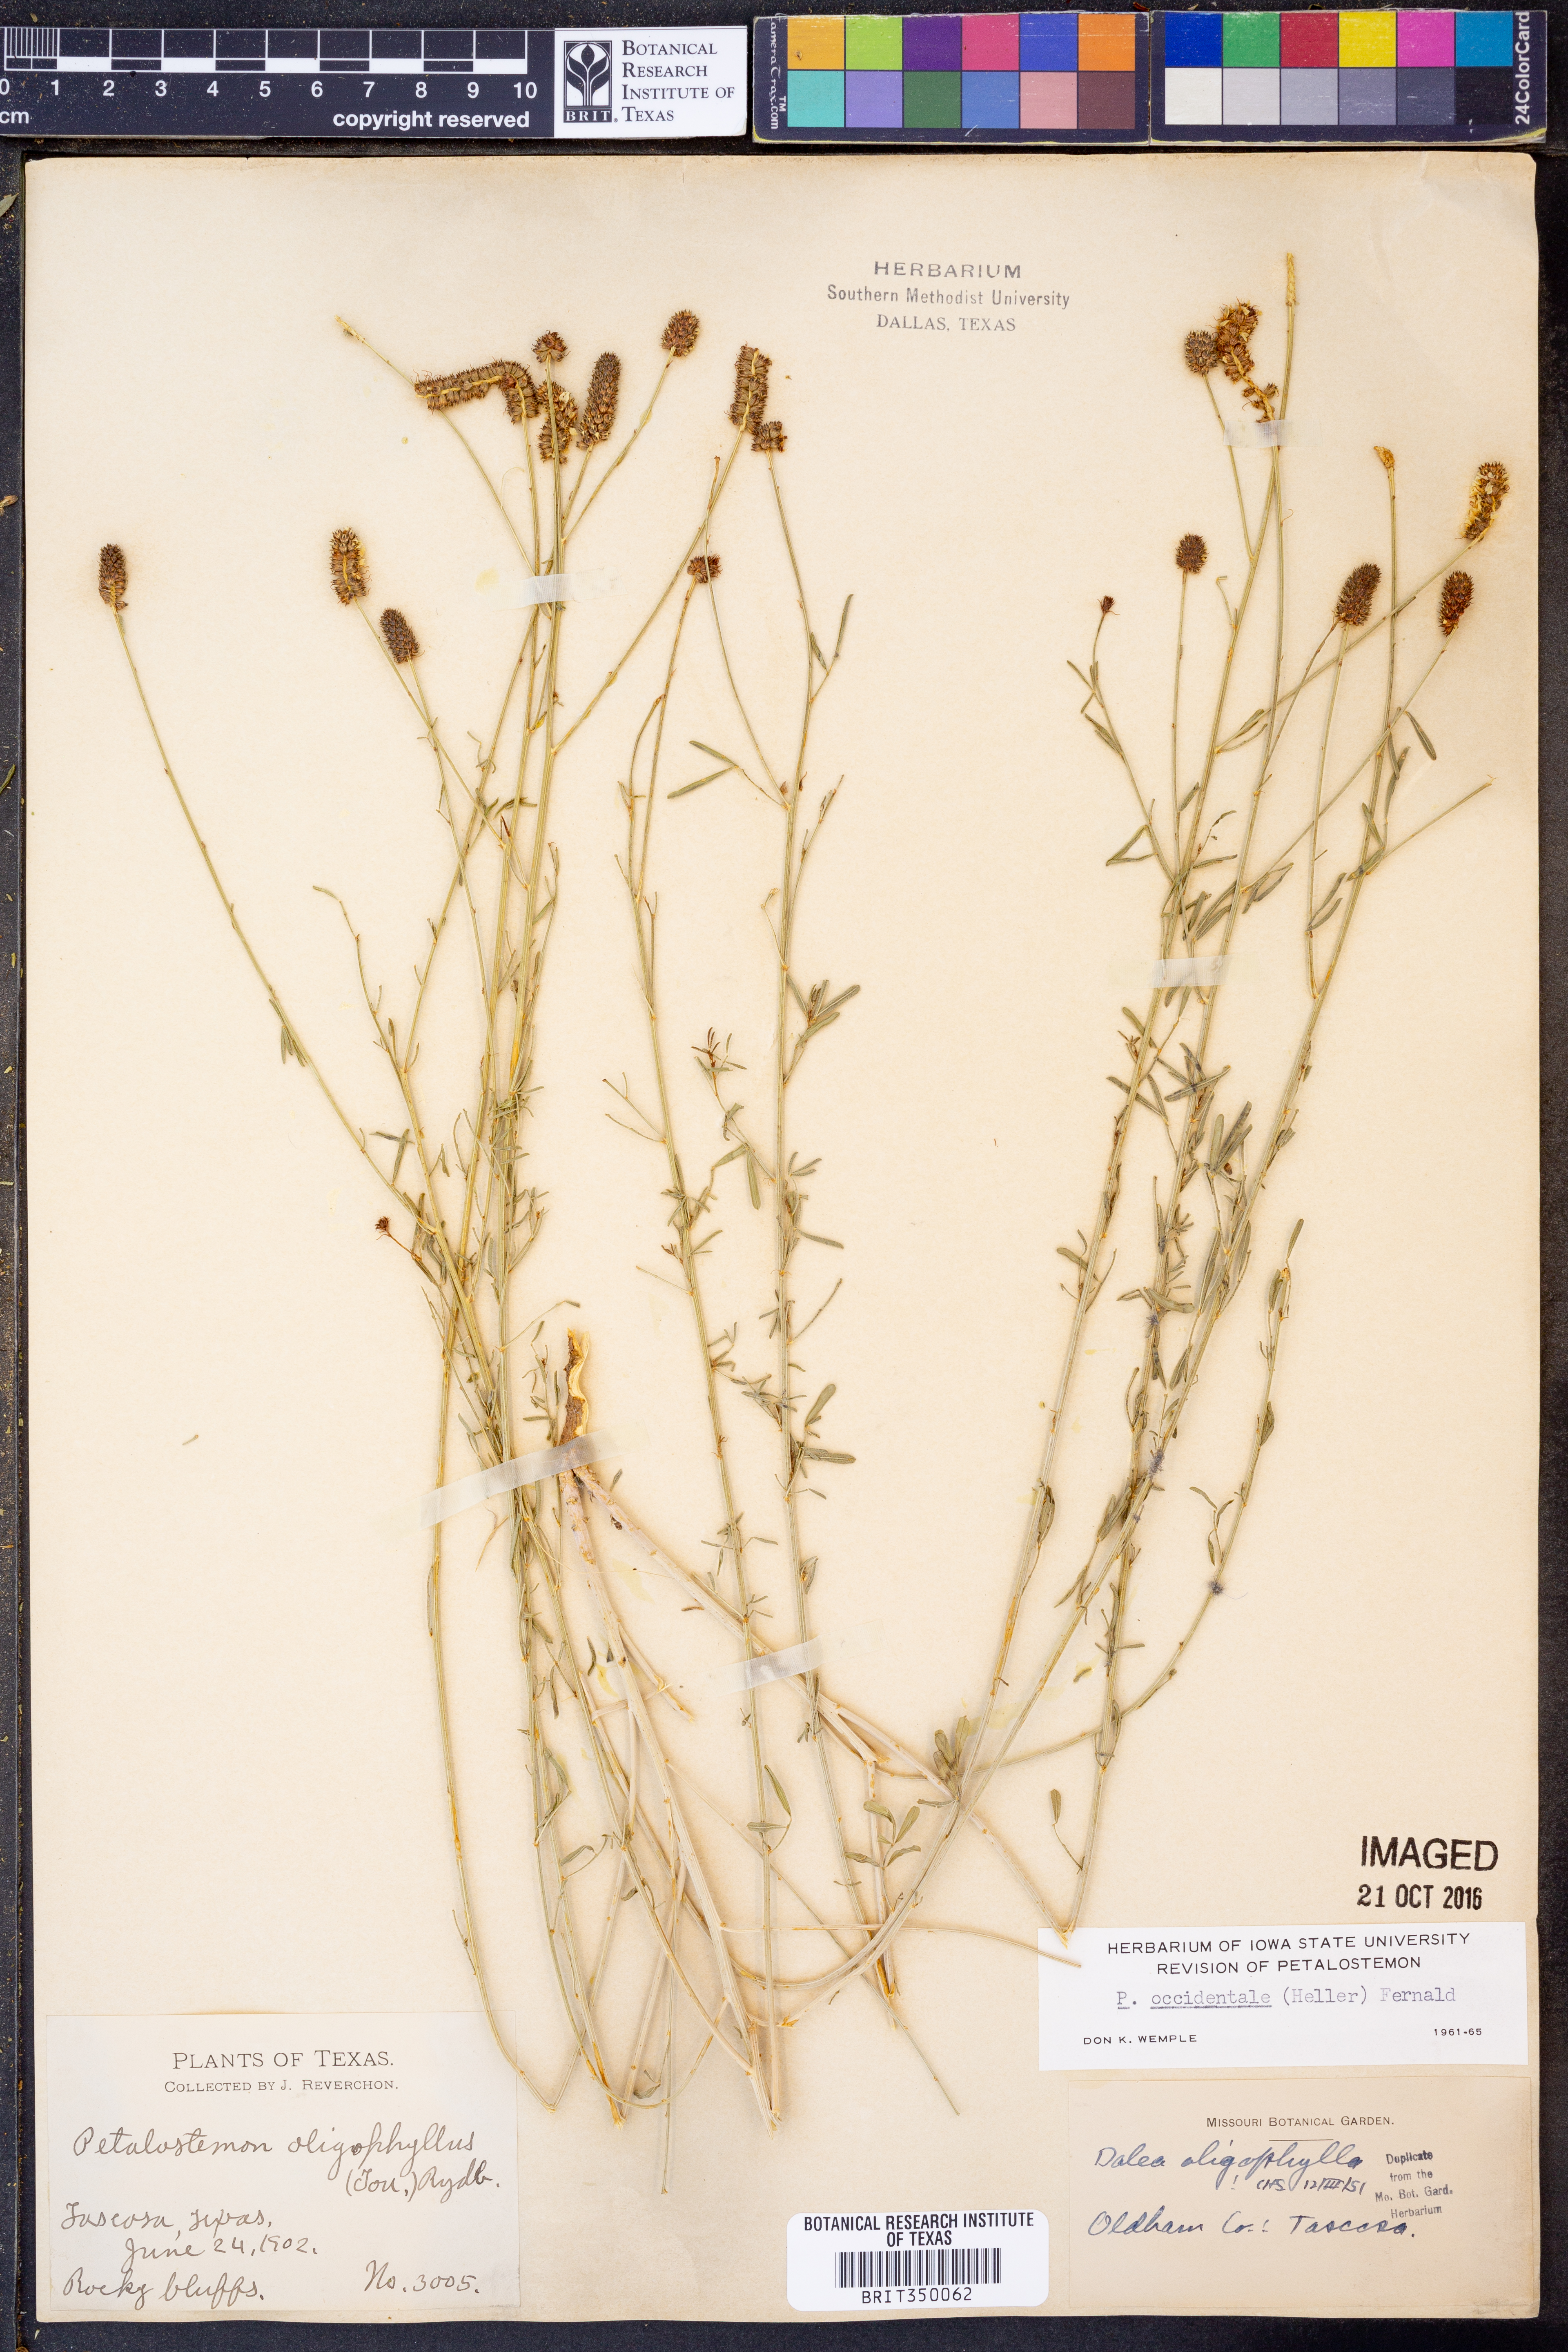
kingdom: Plantae
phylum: Tracheophyta
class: Magnoliopsida
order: Fabales
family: Fabaceae
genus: Dalea
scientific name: Dalea candida
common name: White prairie-clover
